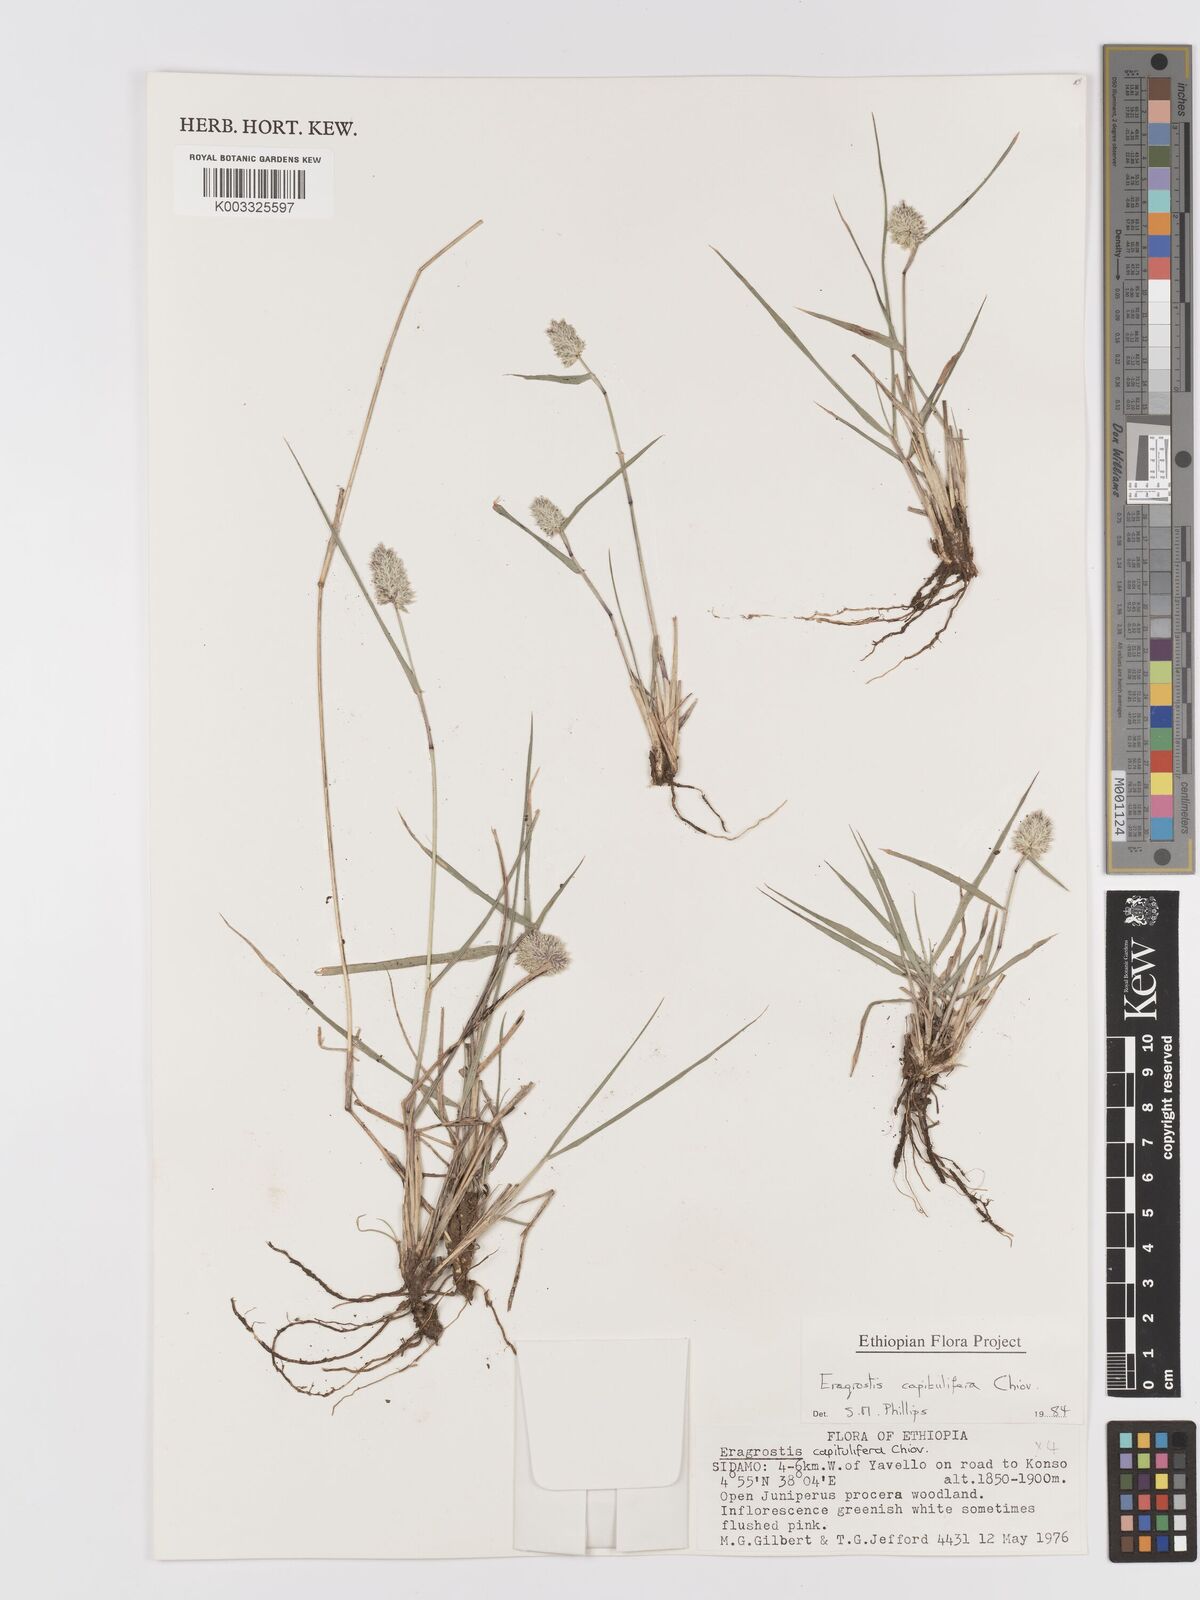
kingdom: Plantae
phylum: Tracheophyta
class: Liliopsida
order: Poales
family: Poaceae
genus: Eragrostis
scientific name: Eragrostis capitulifera
